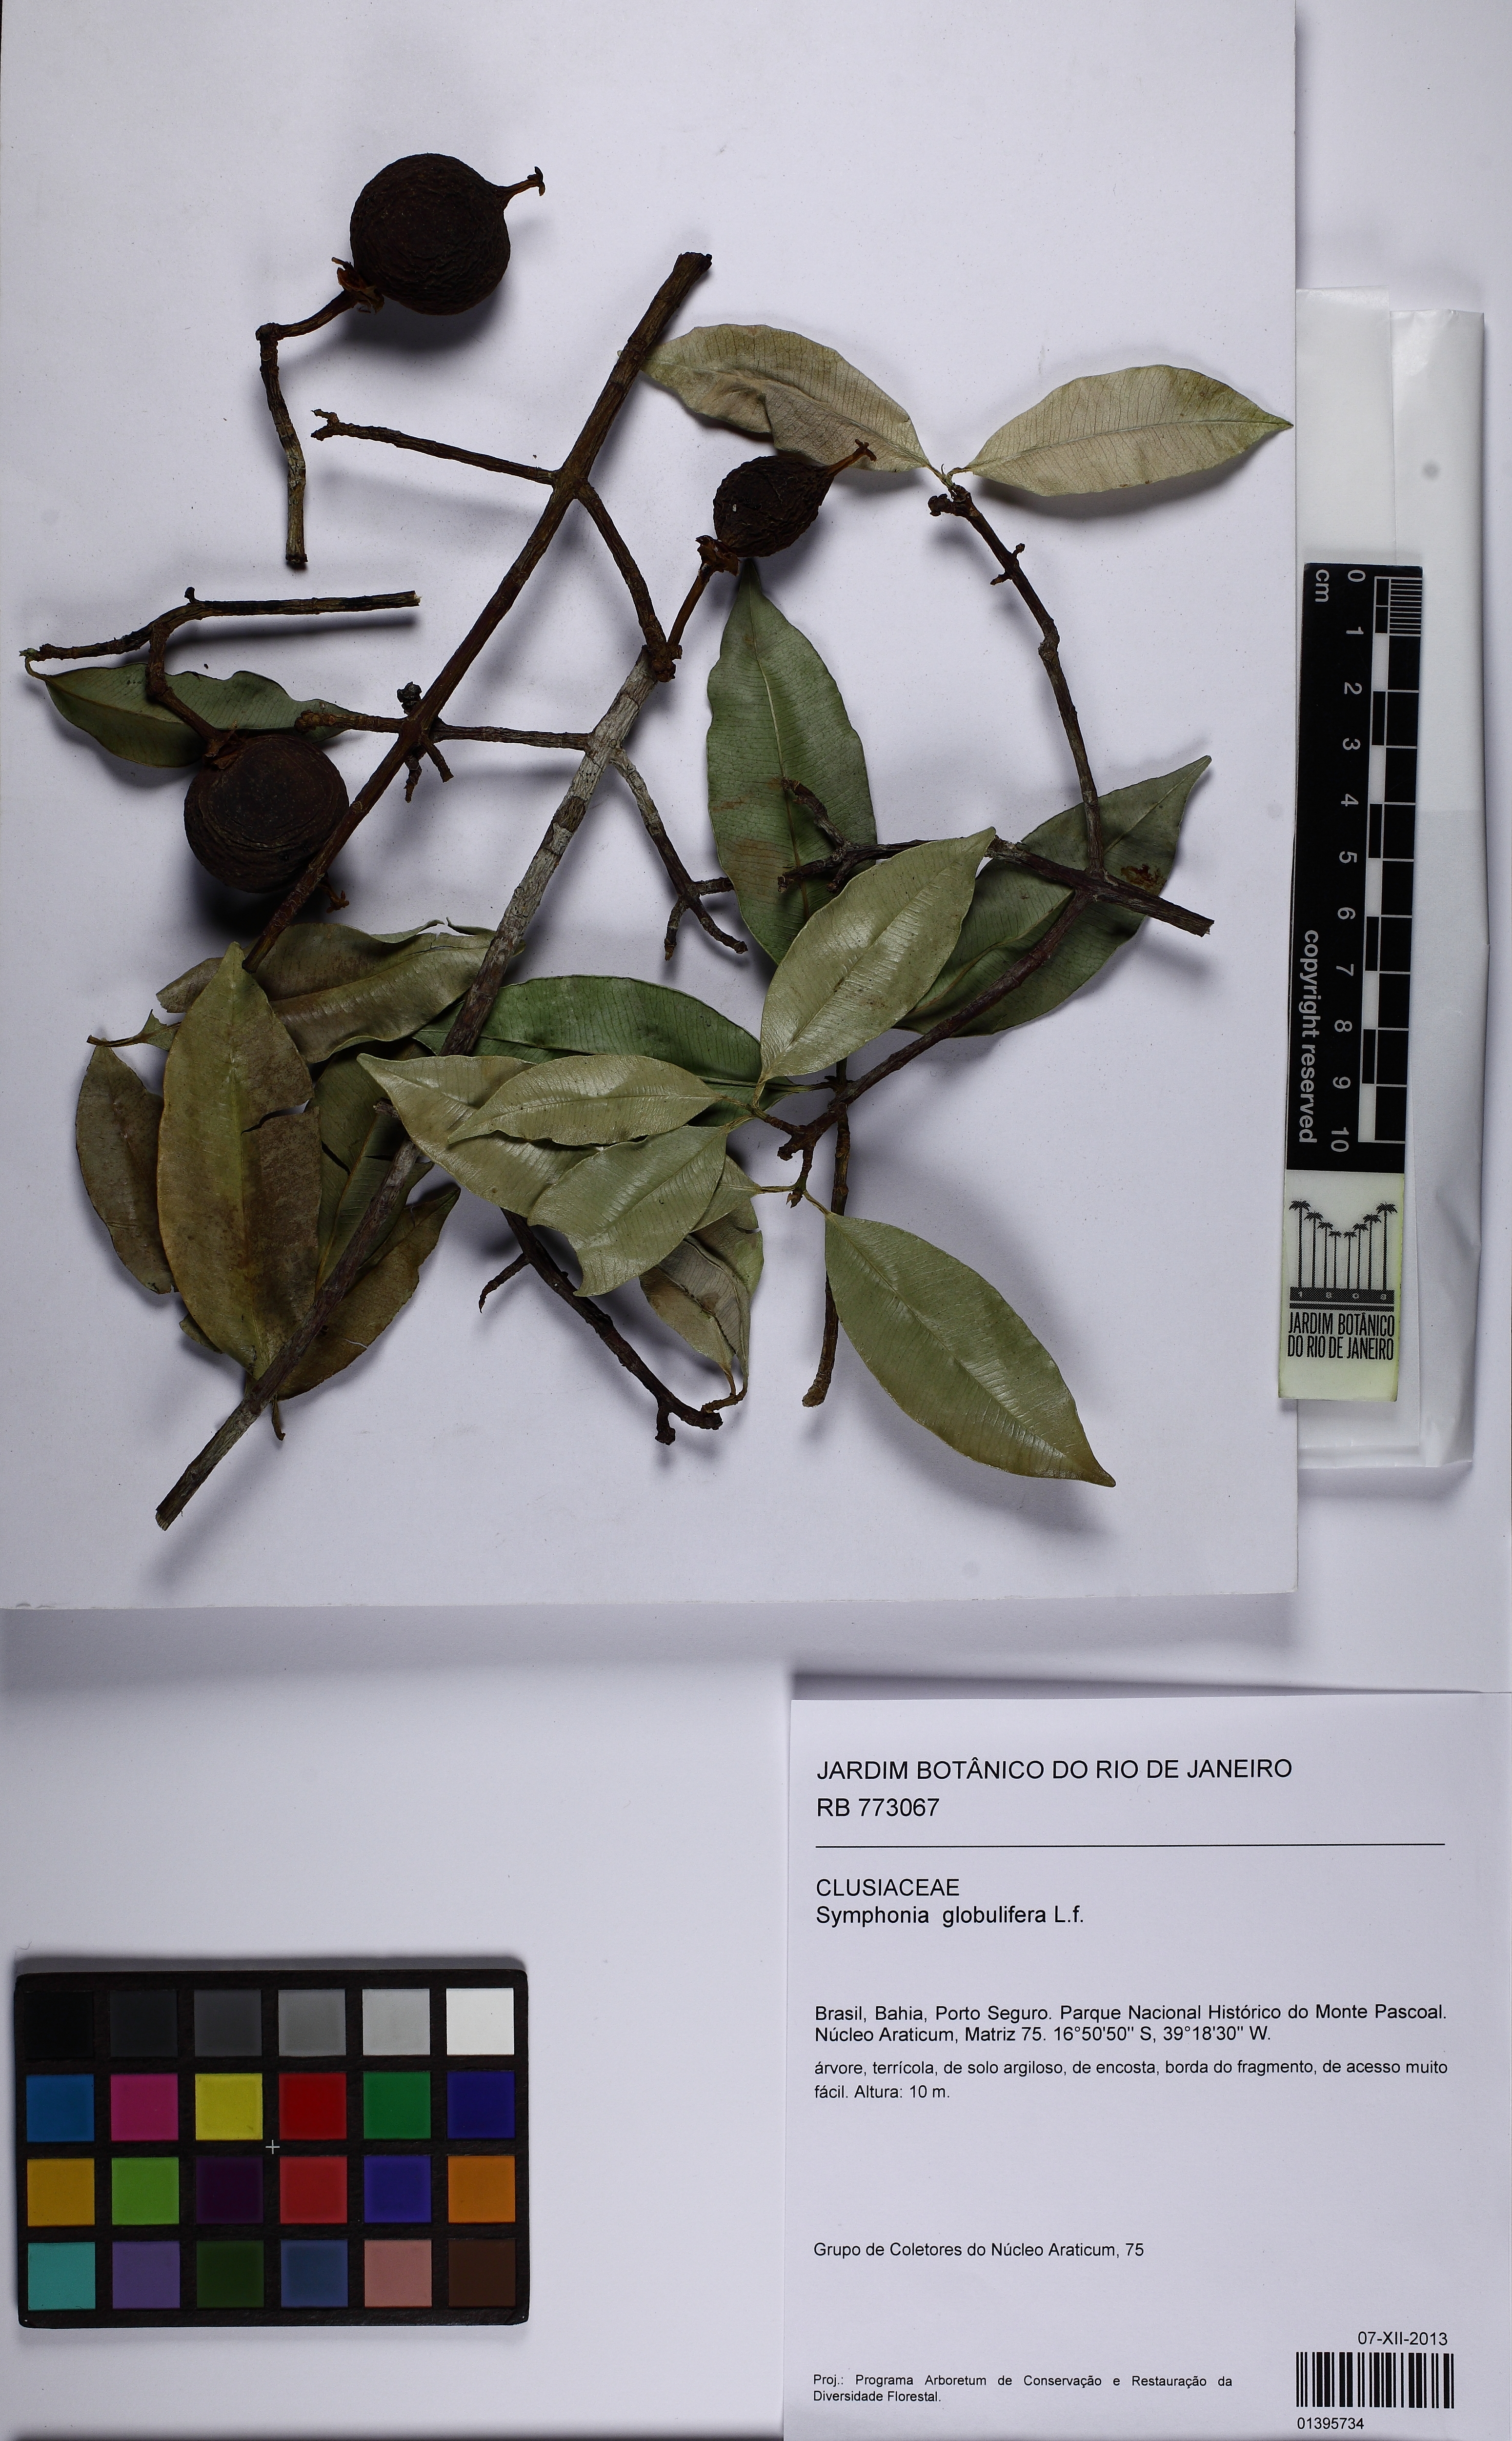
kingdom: Plantae
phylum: Tracheophyta
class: Magnoliopsida
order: Malpighiales
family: Clusiaceae
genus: Symphonia
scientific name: Symphonia globulifera
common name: Boarwood
